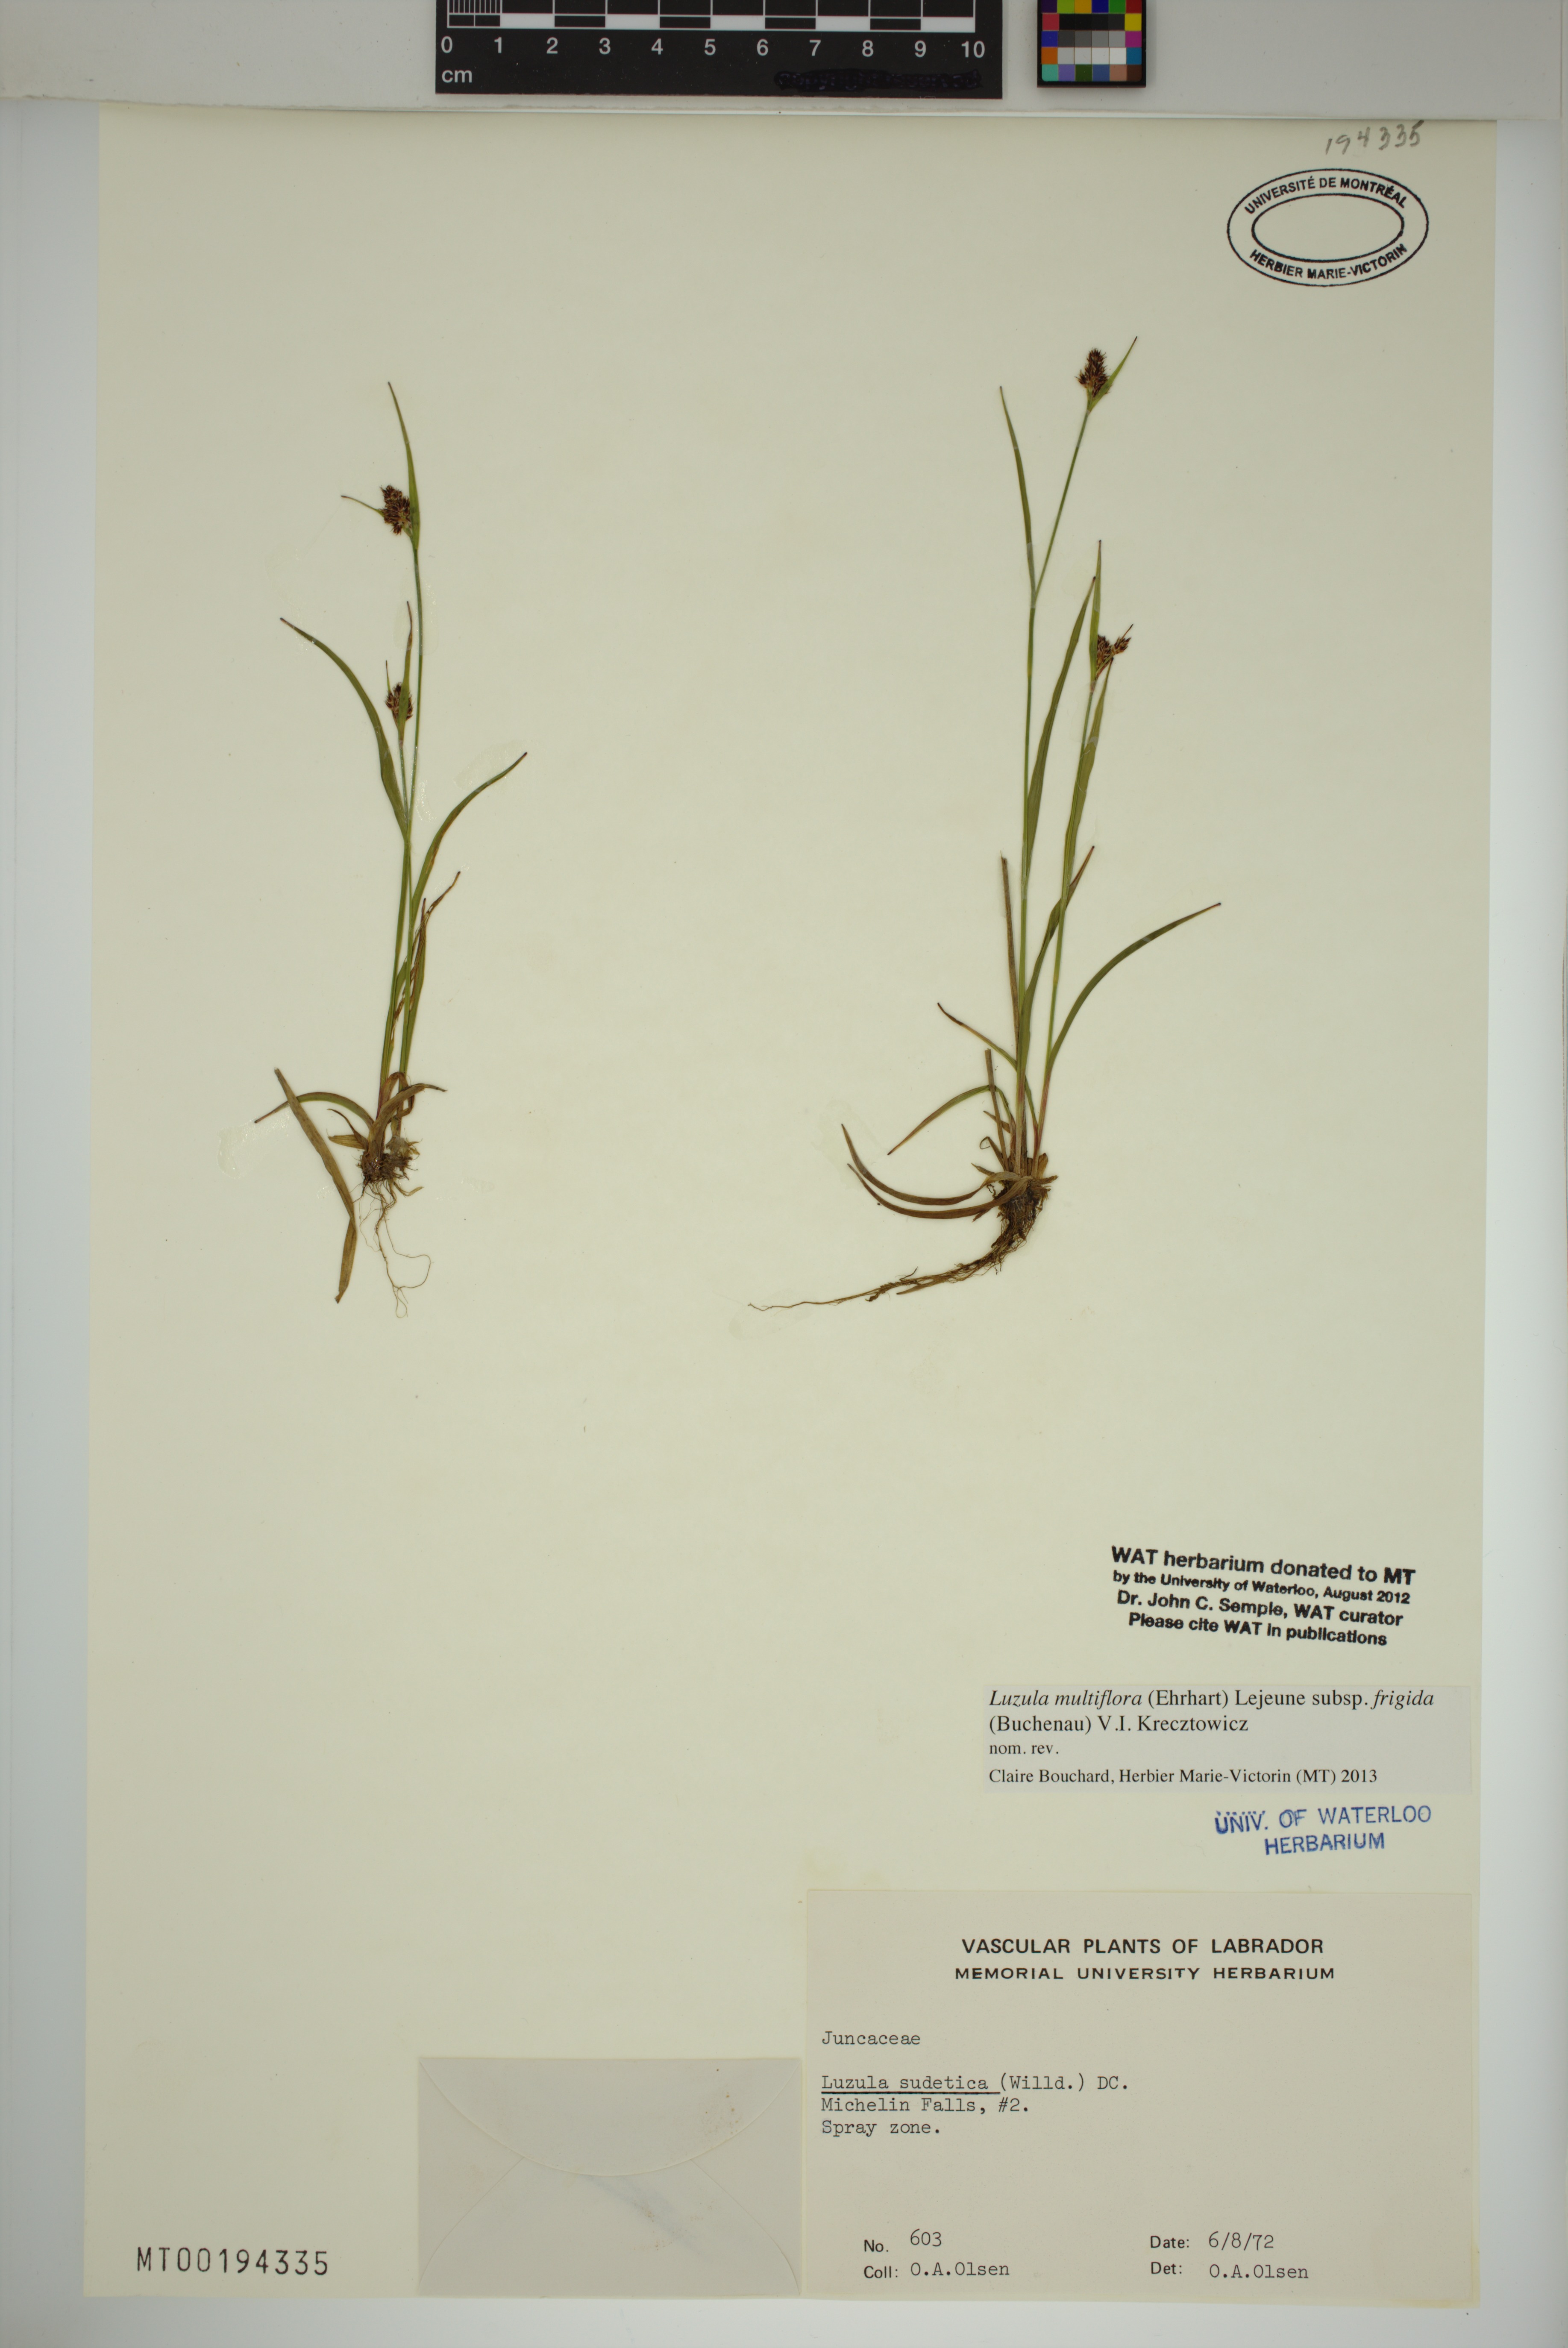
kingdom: Plantae
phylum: Tracheophyta
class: Liliopsida
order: Poales
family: Juncaceae
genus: Luzula
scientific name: Luzula multiflora
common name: Heath wood-rush
